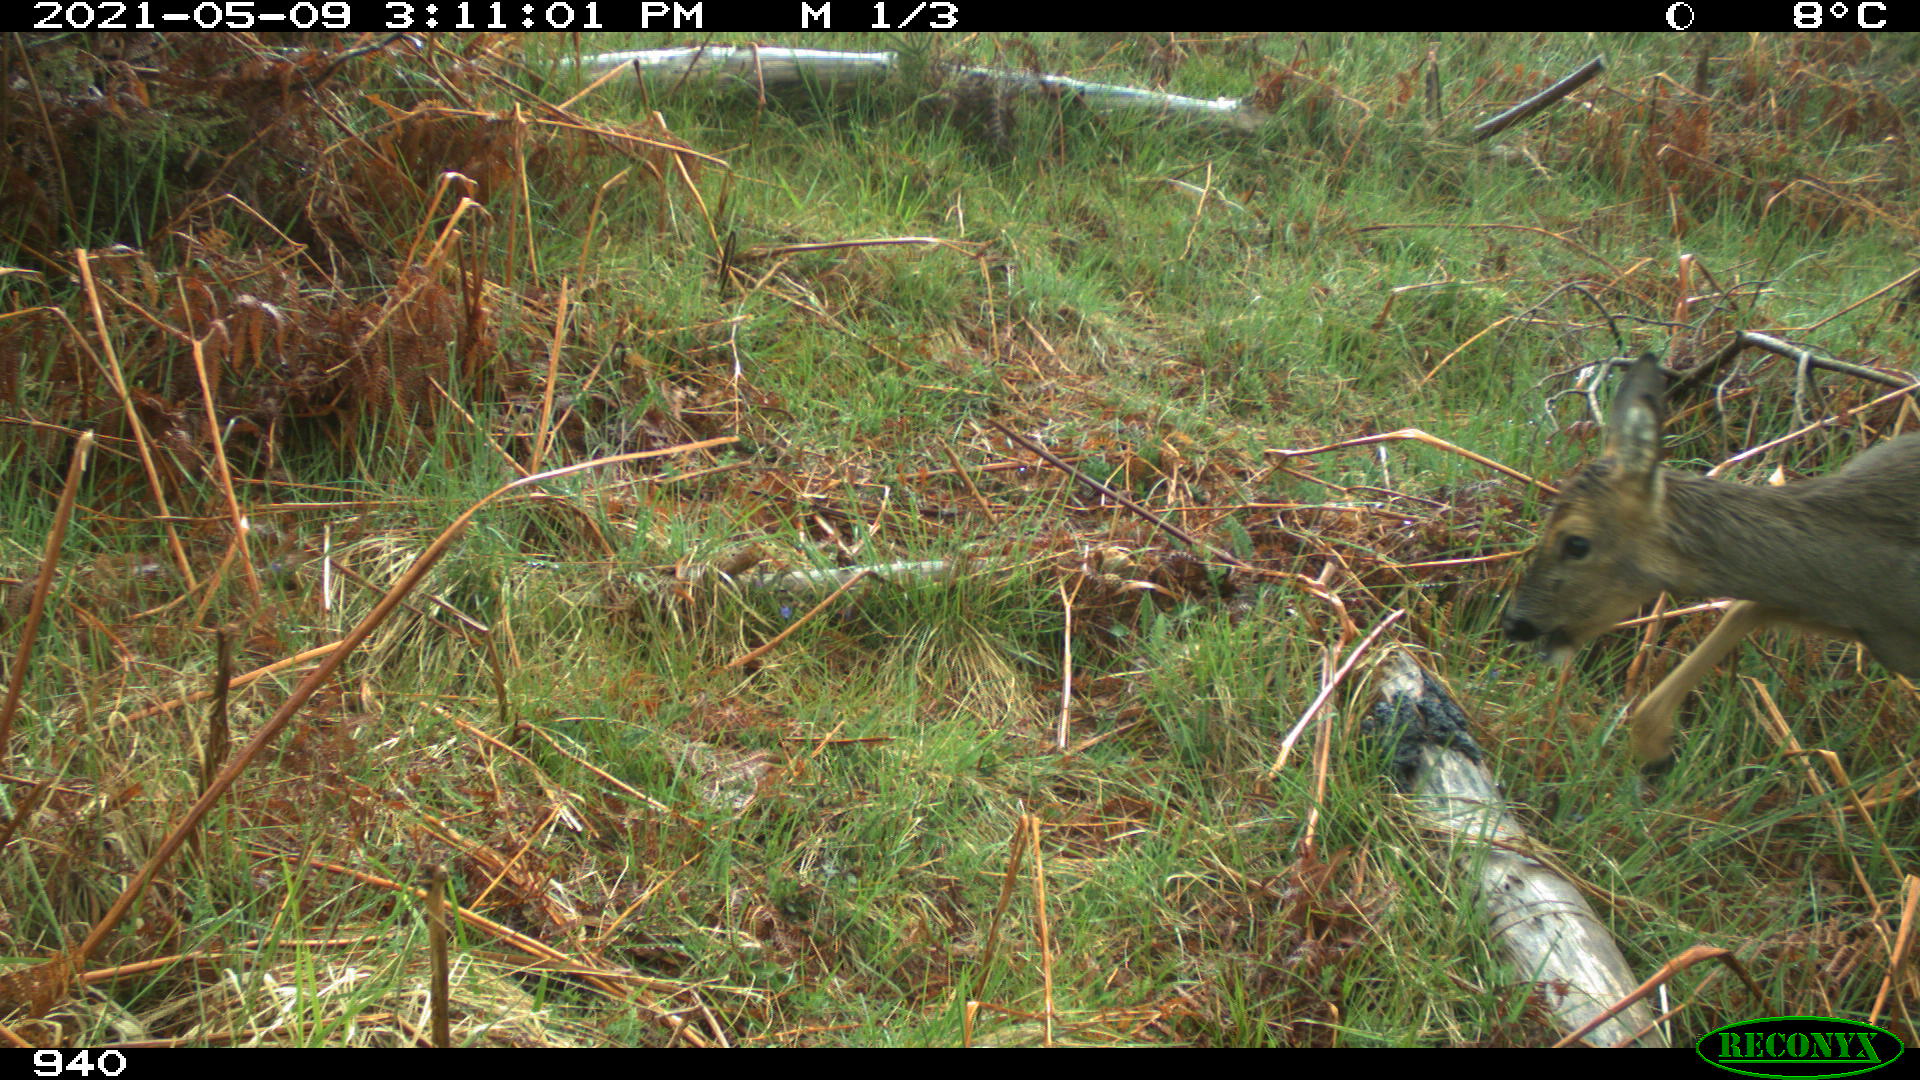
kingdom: Animalia
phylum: Chordata
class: Mammalia
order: Artiodactyla
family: Cervidae
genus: Capreolus
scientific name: Capreolus capreolus
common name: Western roe deer
